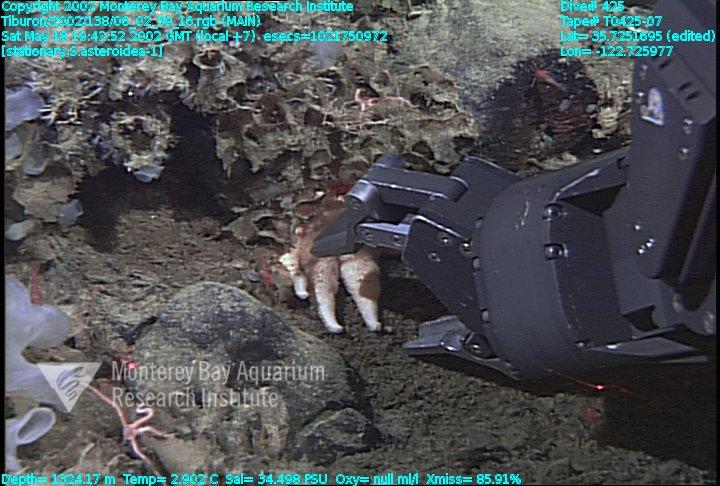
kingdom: Animalia
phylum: Porifera
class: Hexactinellida
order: Sceptrulophora
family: Farreidae
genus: Farrea
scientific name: Farrea occa
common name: Reversed glass sponge
